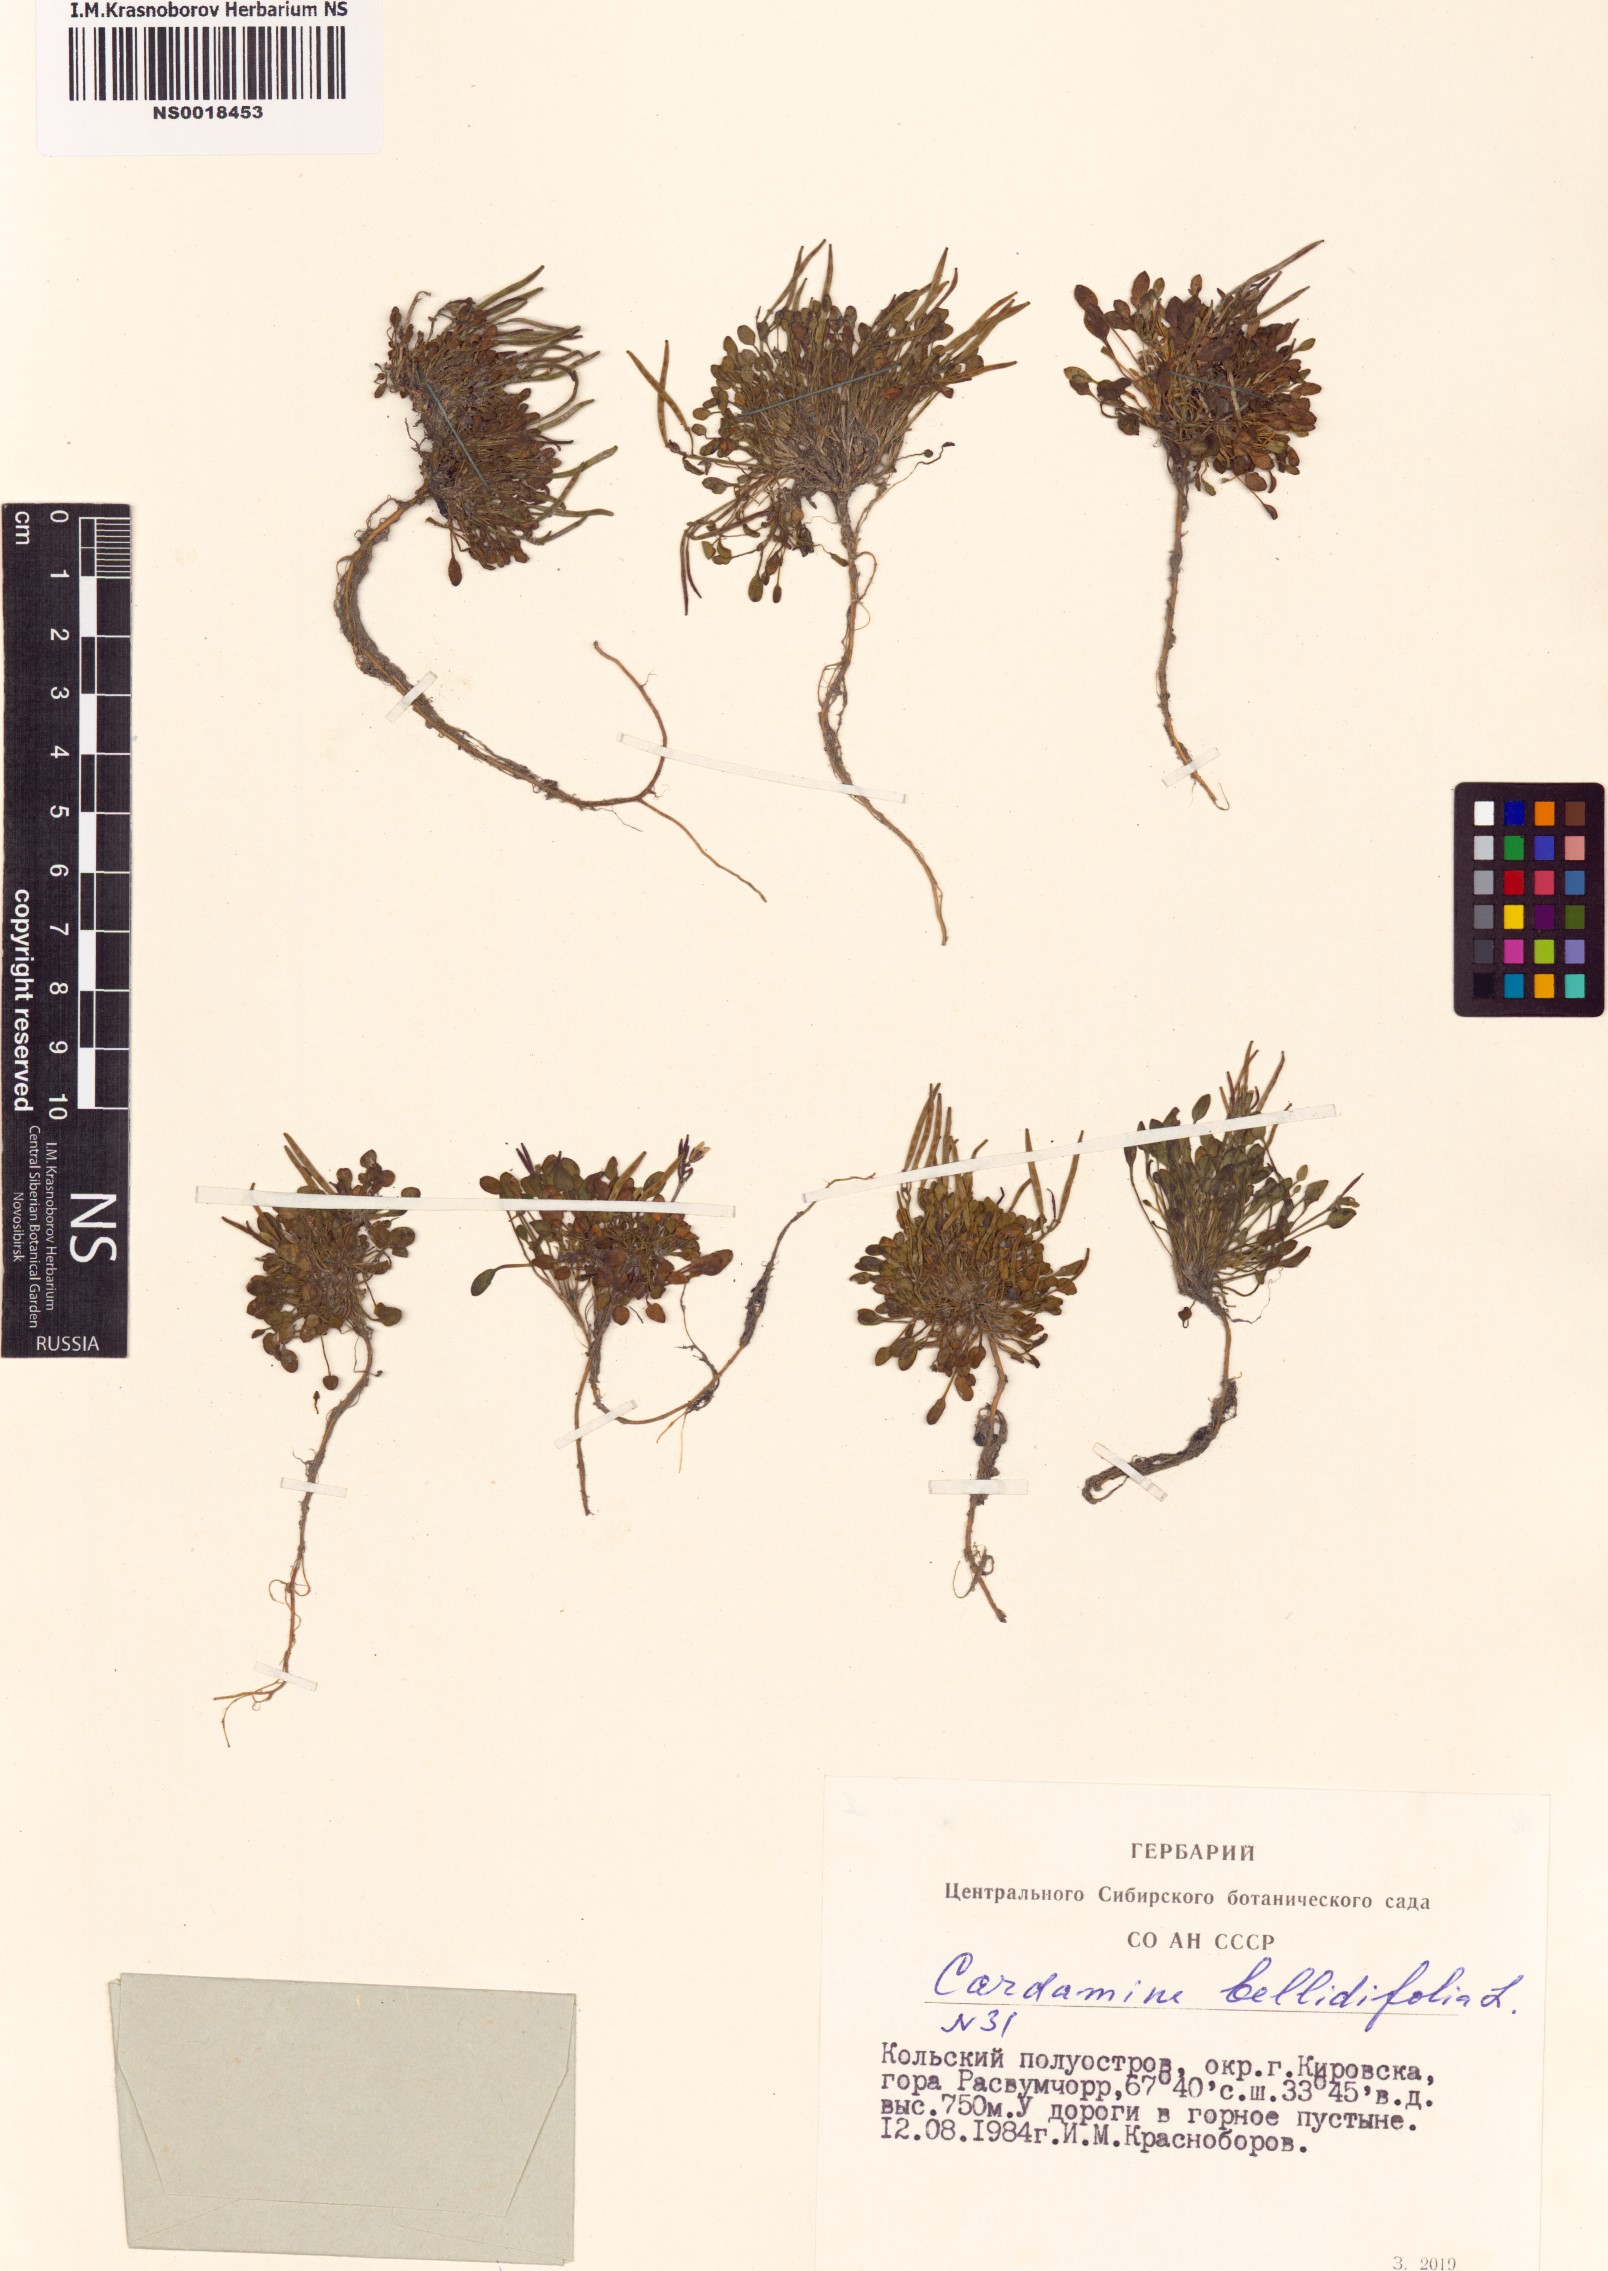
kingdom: Plantae
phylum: Tracheophyta
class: Magnoliopsida
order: Brassicales
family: Brassicaceae
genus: Cardamine
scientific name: Cardamine bellidifolia
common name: Alpine bittercress
